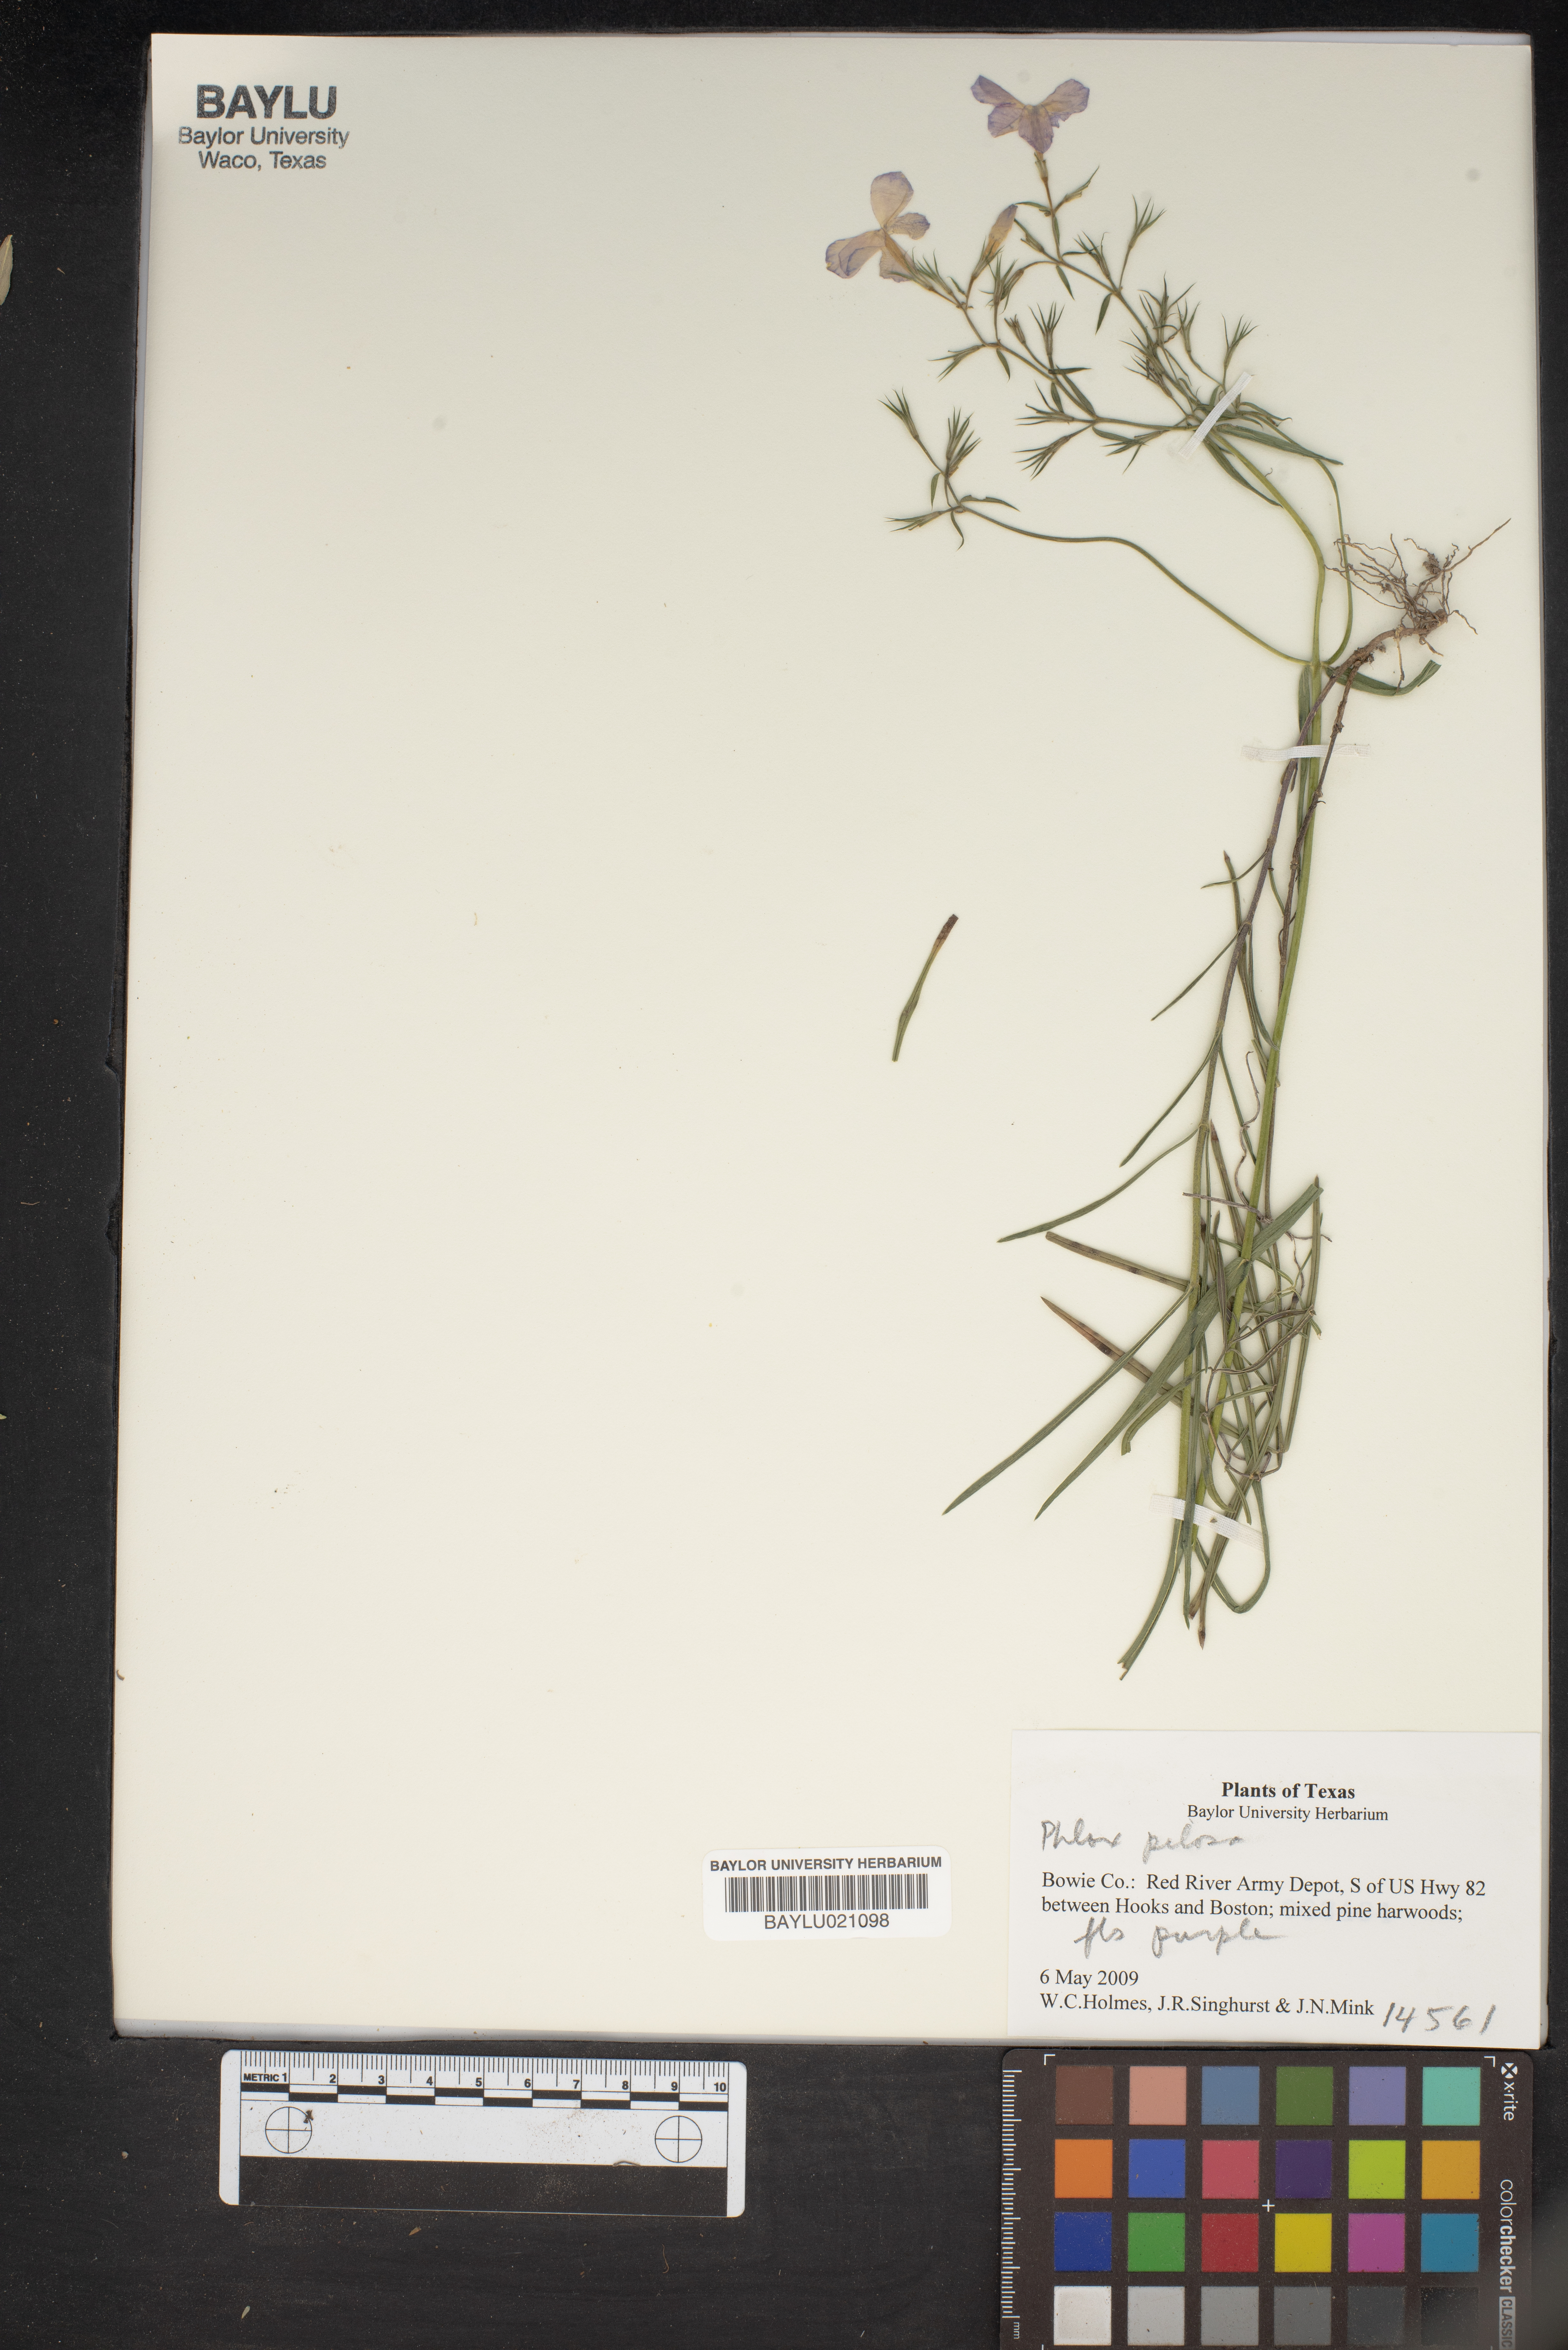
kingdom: Plantae
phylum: Tracheophyta
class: Magnoliopsida
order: Ericales
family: Polemoniaceae
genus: Phlox
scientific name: Phlox pilosa
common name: Prairie phlox
